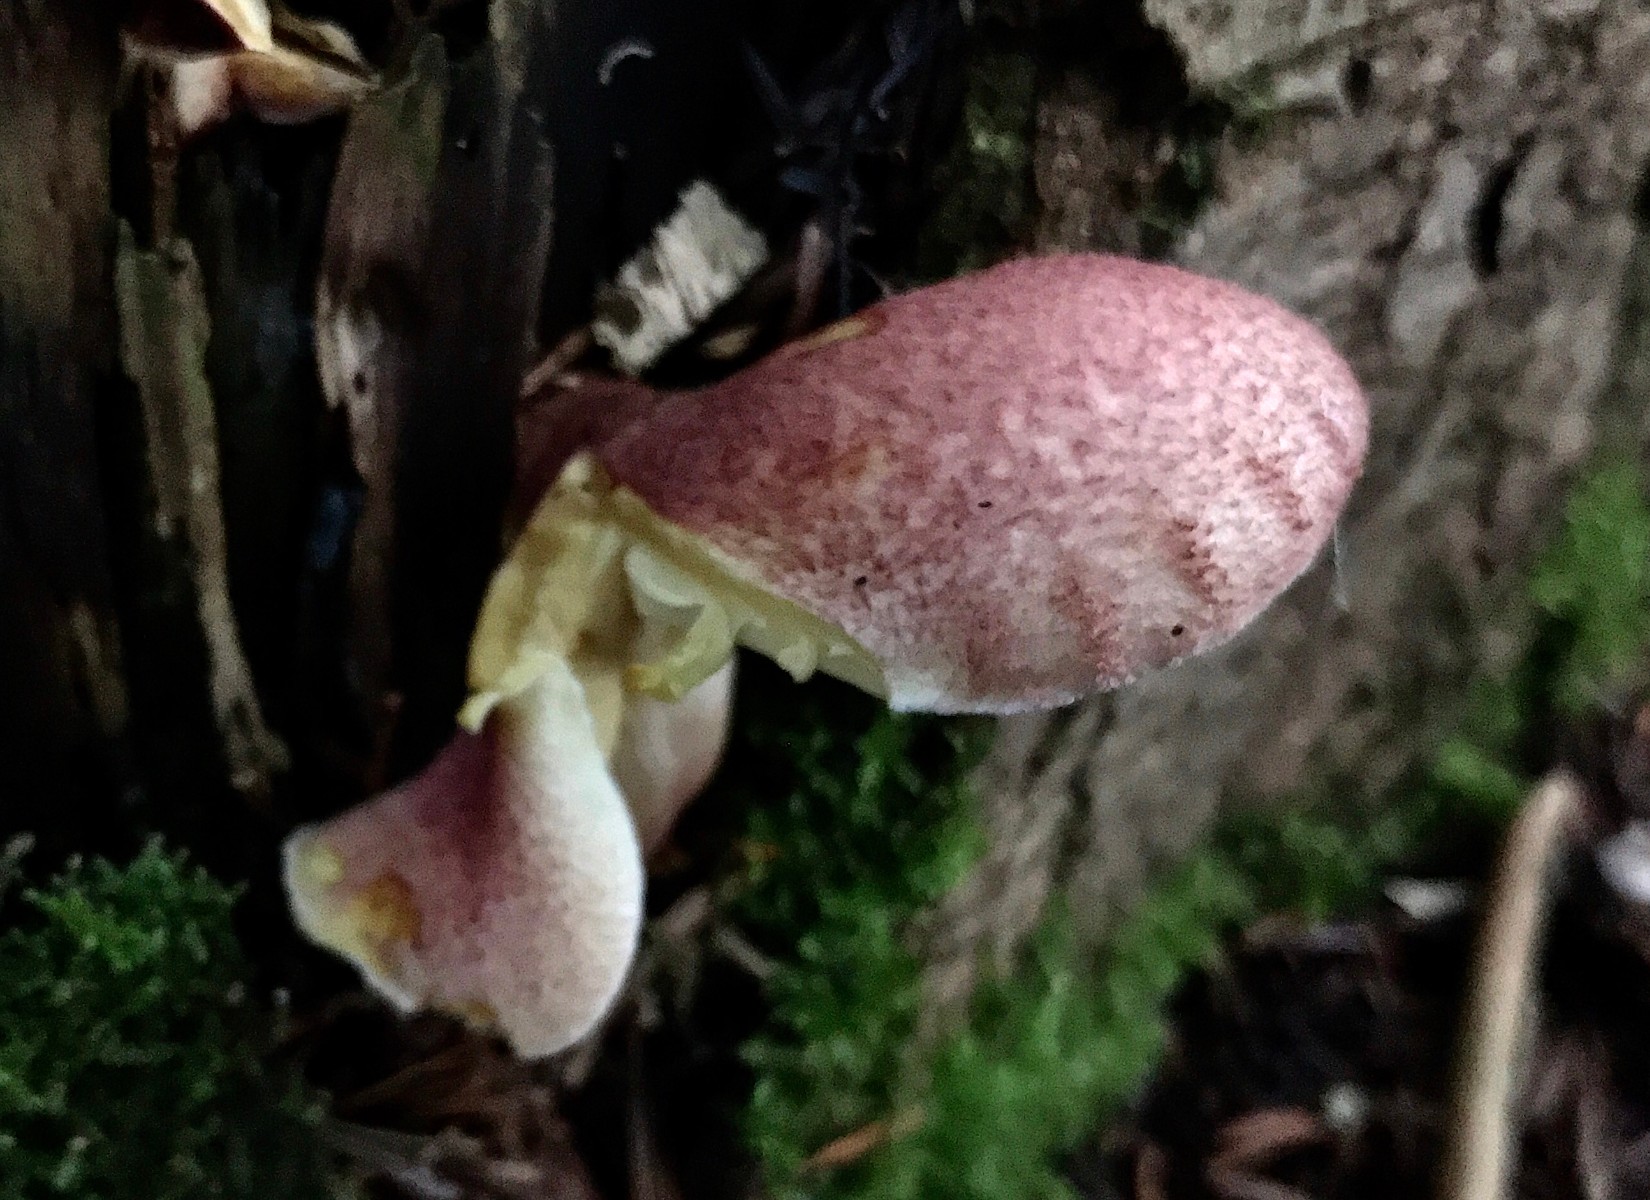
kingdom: Fungi
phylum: Basidiomycota
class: Agaricomycetes
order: Agaricales
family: Tricholomataceae
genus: Tricholomopsis
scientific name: Tricholomopsis rutilans
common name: purpur-væbnerhat
